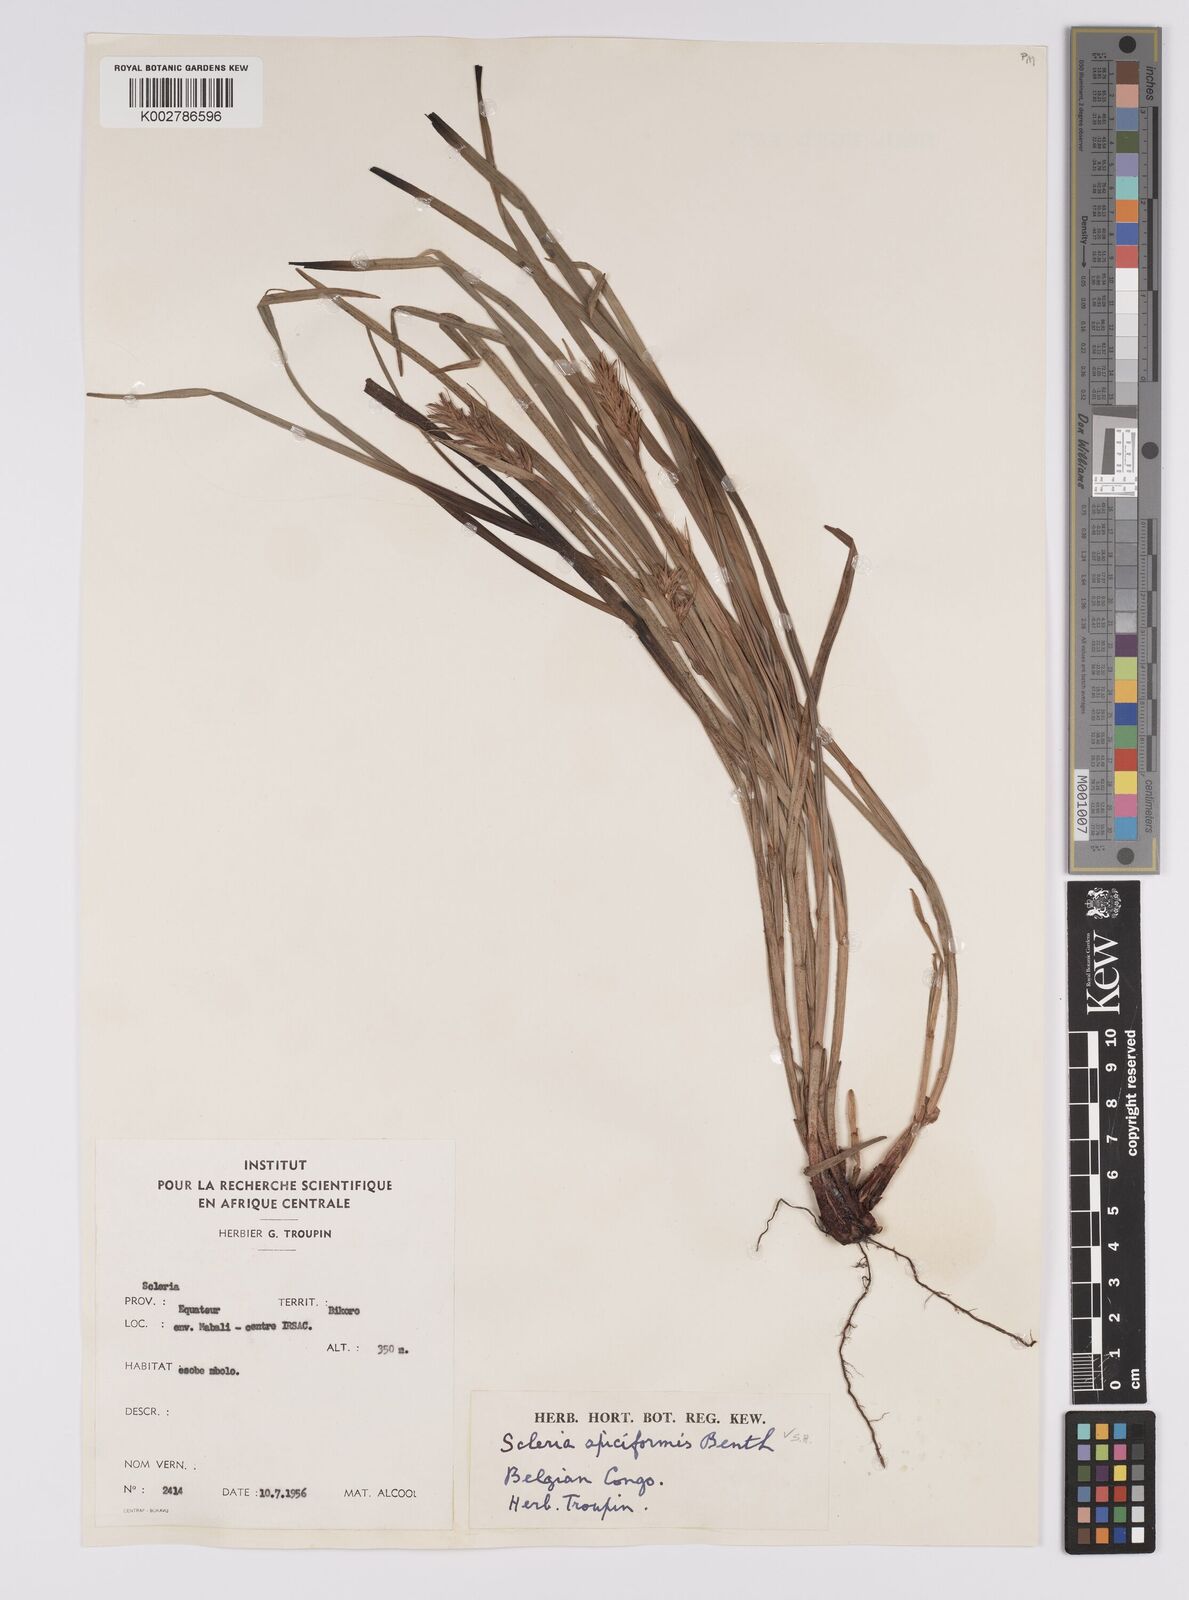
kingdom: Plantae
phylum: Tracheophyta
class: Liliopsida
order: Poales
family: Cyperaceae
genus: Scleria
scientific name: Scleria spiciformis
